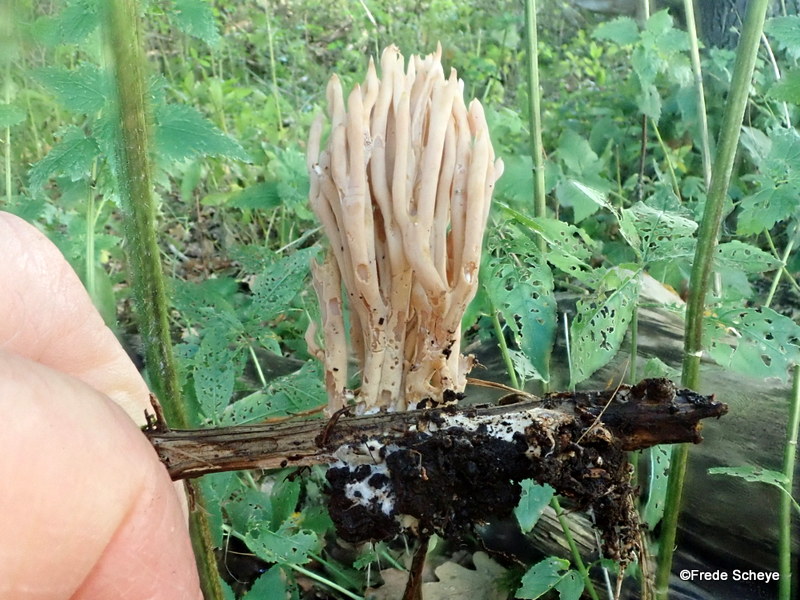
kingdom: Fungi
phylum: Basidiomycota
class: Agaricomycetes
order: Gomphales
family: Gomphaceae
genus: Ramaria
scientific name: Ramaria stricta
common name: rank koralsvamp
